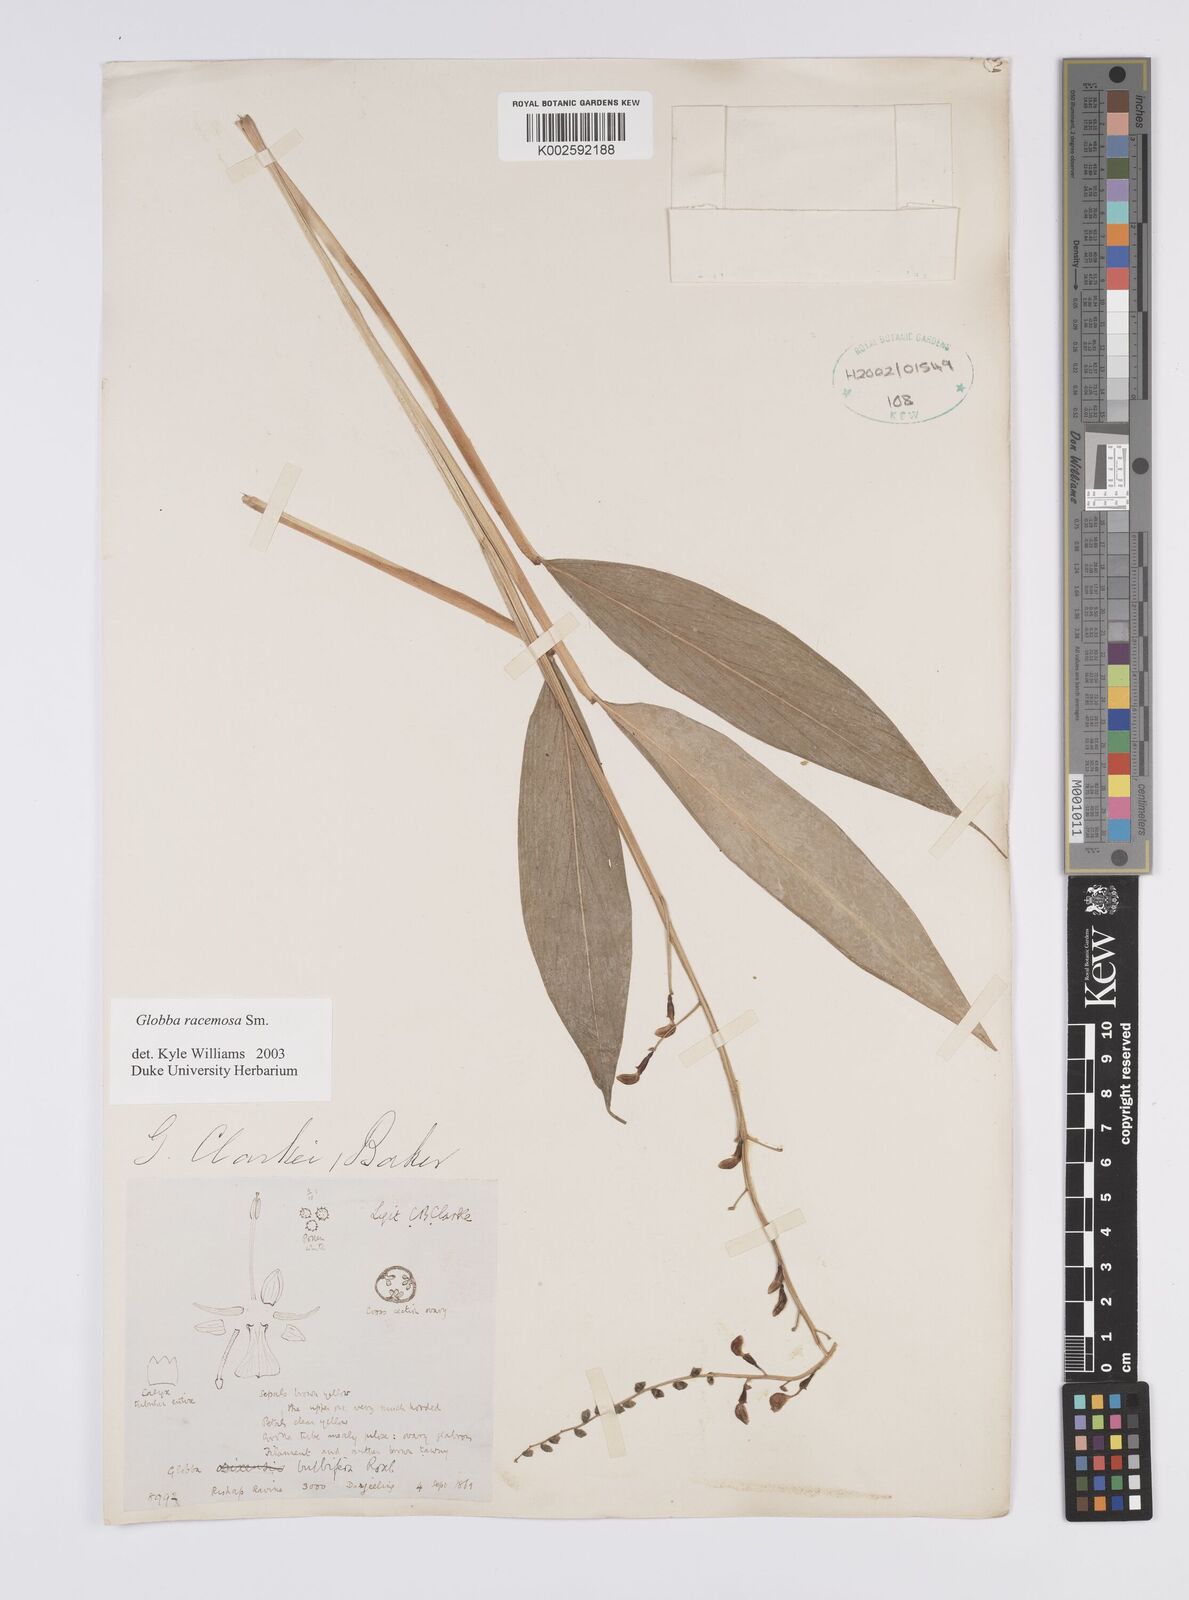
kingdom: Plantae
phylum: Tracheophyta
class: Liliopsida
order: Zingiberales
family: Zingiberaceae
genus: Globba
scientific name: Globba racemosa
